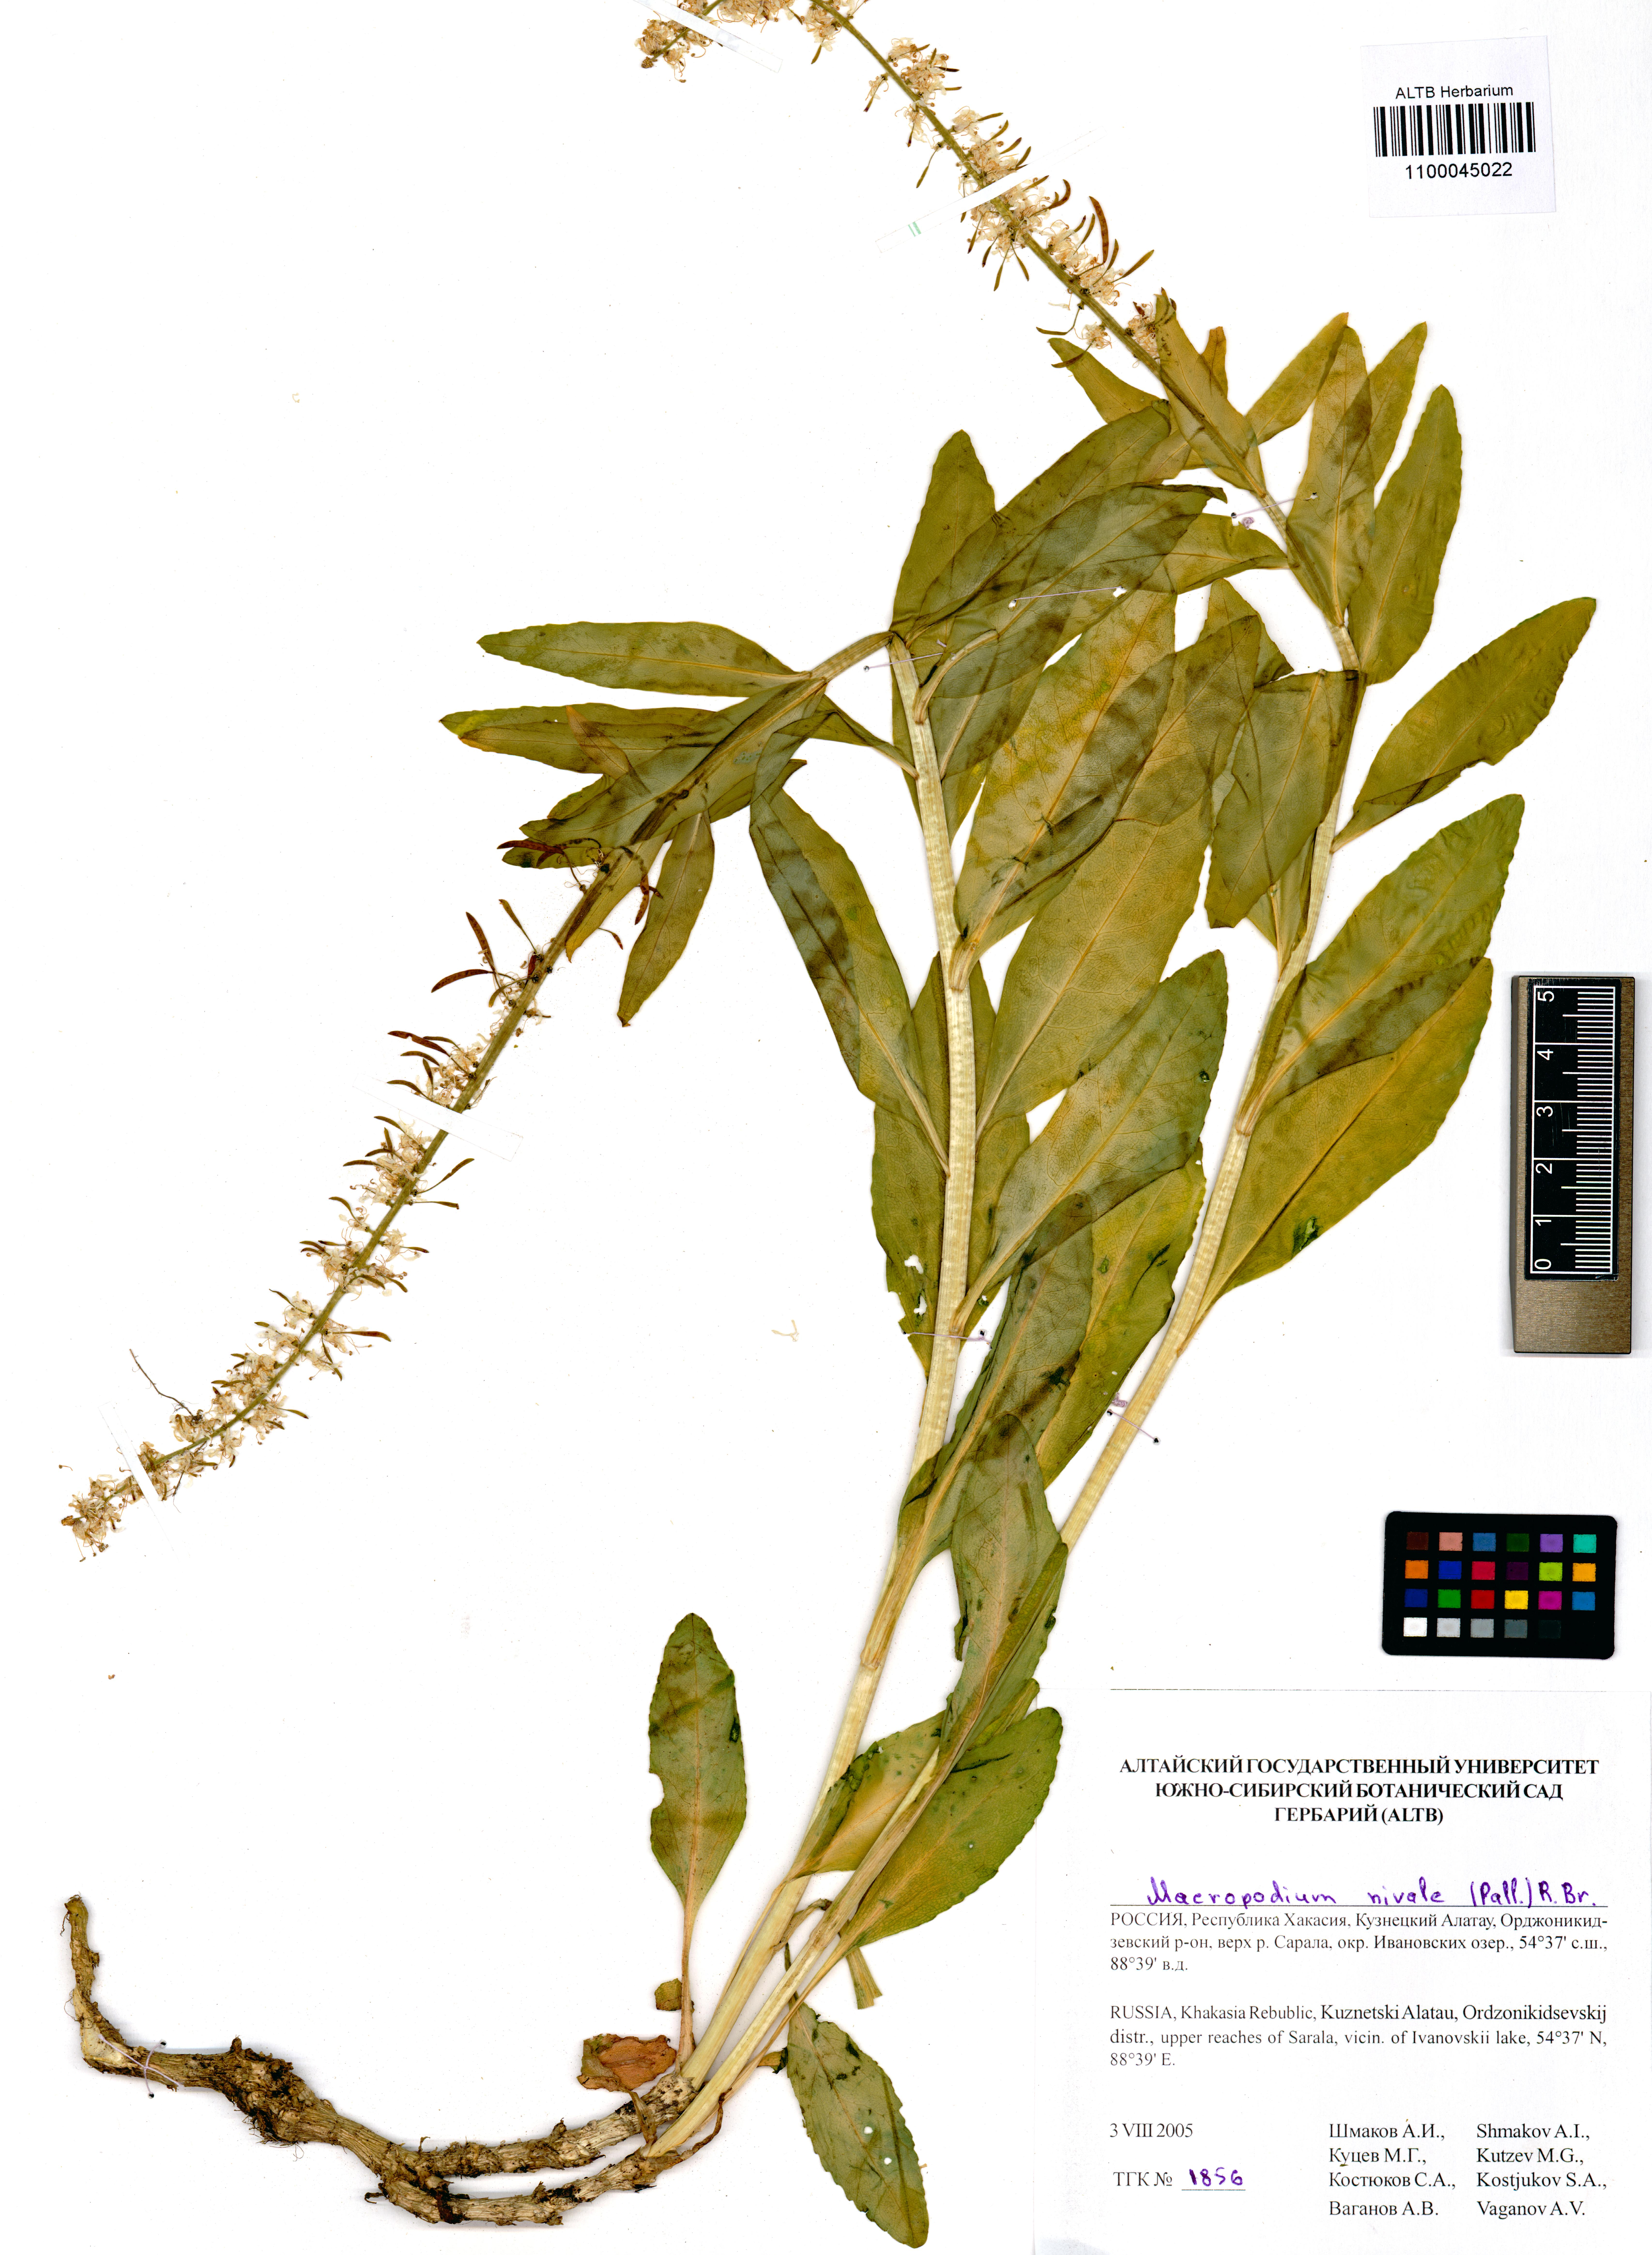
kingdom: Plantae
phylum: Tracheophyta
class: Magnoliopsida
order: Brassicales
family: Brassicaceae
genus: Macropodium
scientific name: Macropodium nivale
